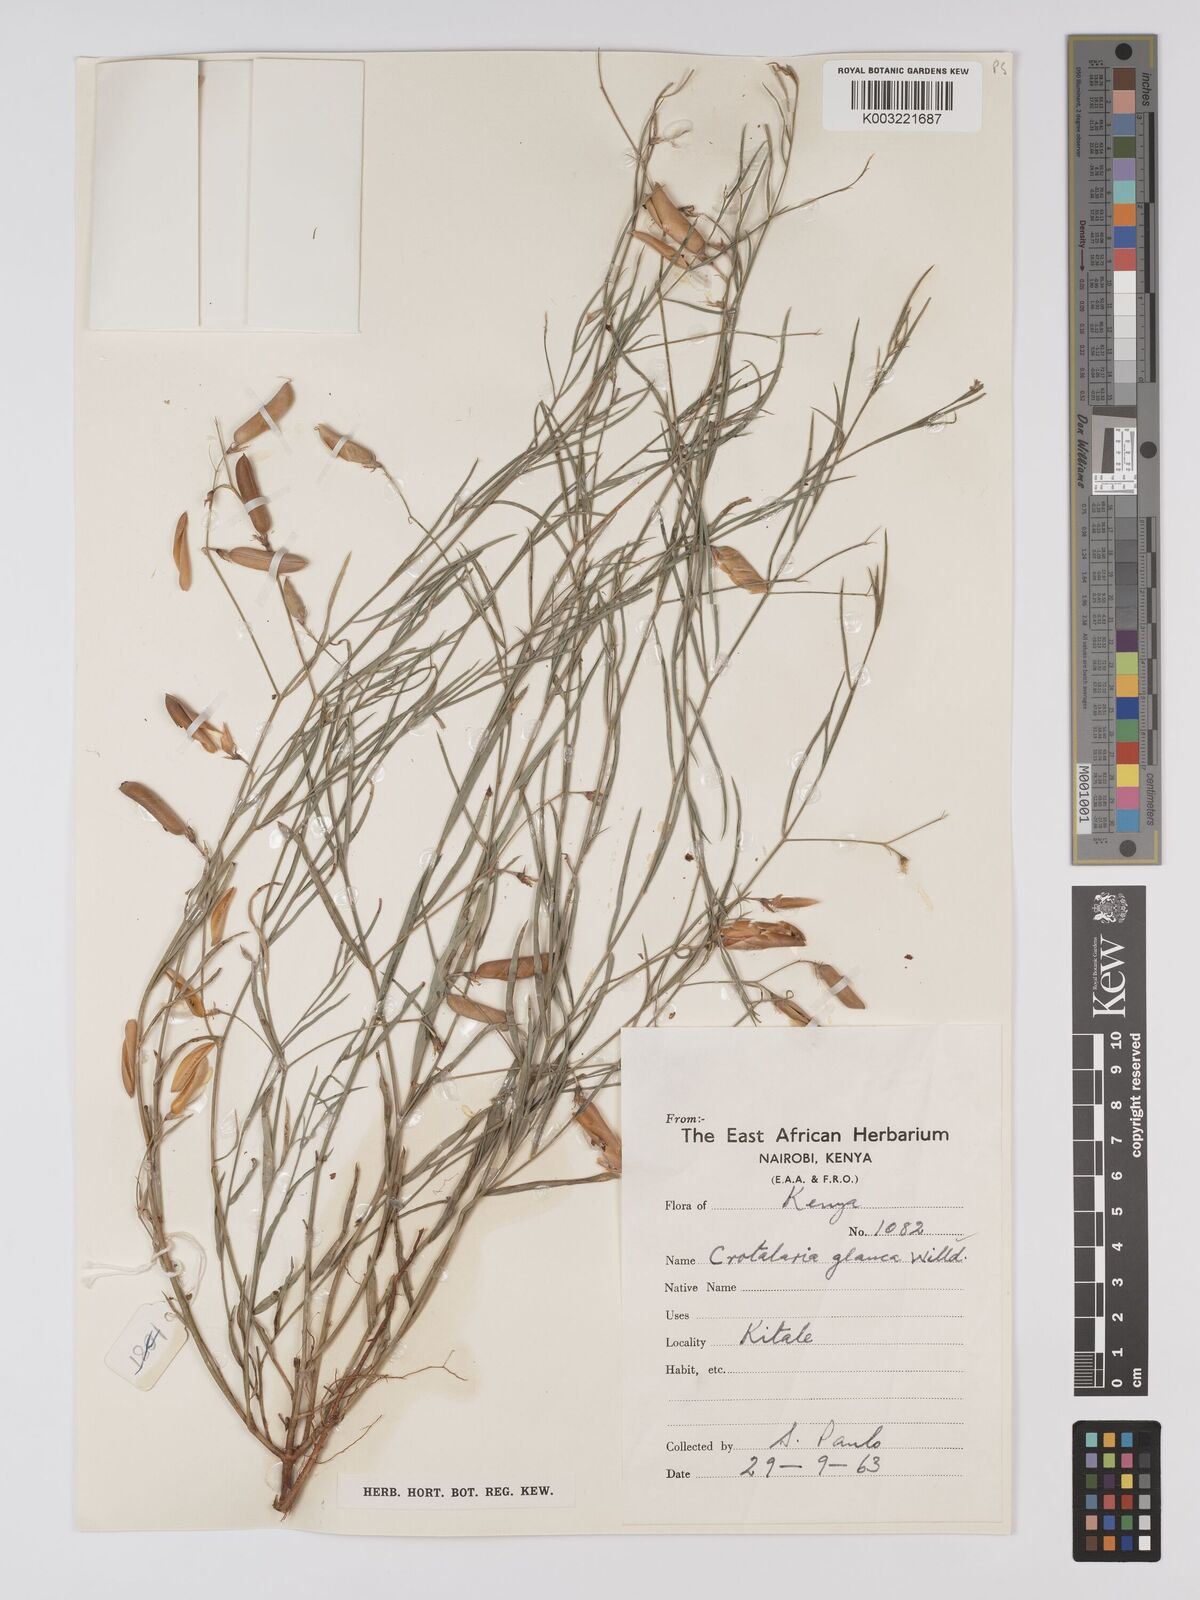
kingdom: Plantae
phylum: Tracheophyta
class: Magnoliopsida
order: Fabales
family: Fabaceae
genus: Crotalaria
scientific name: Crotalaria glauca
